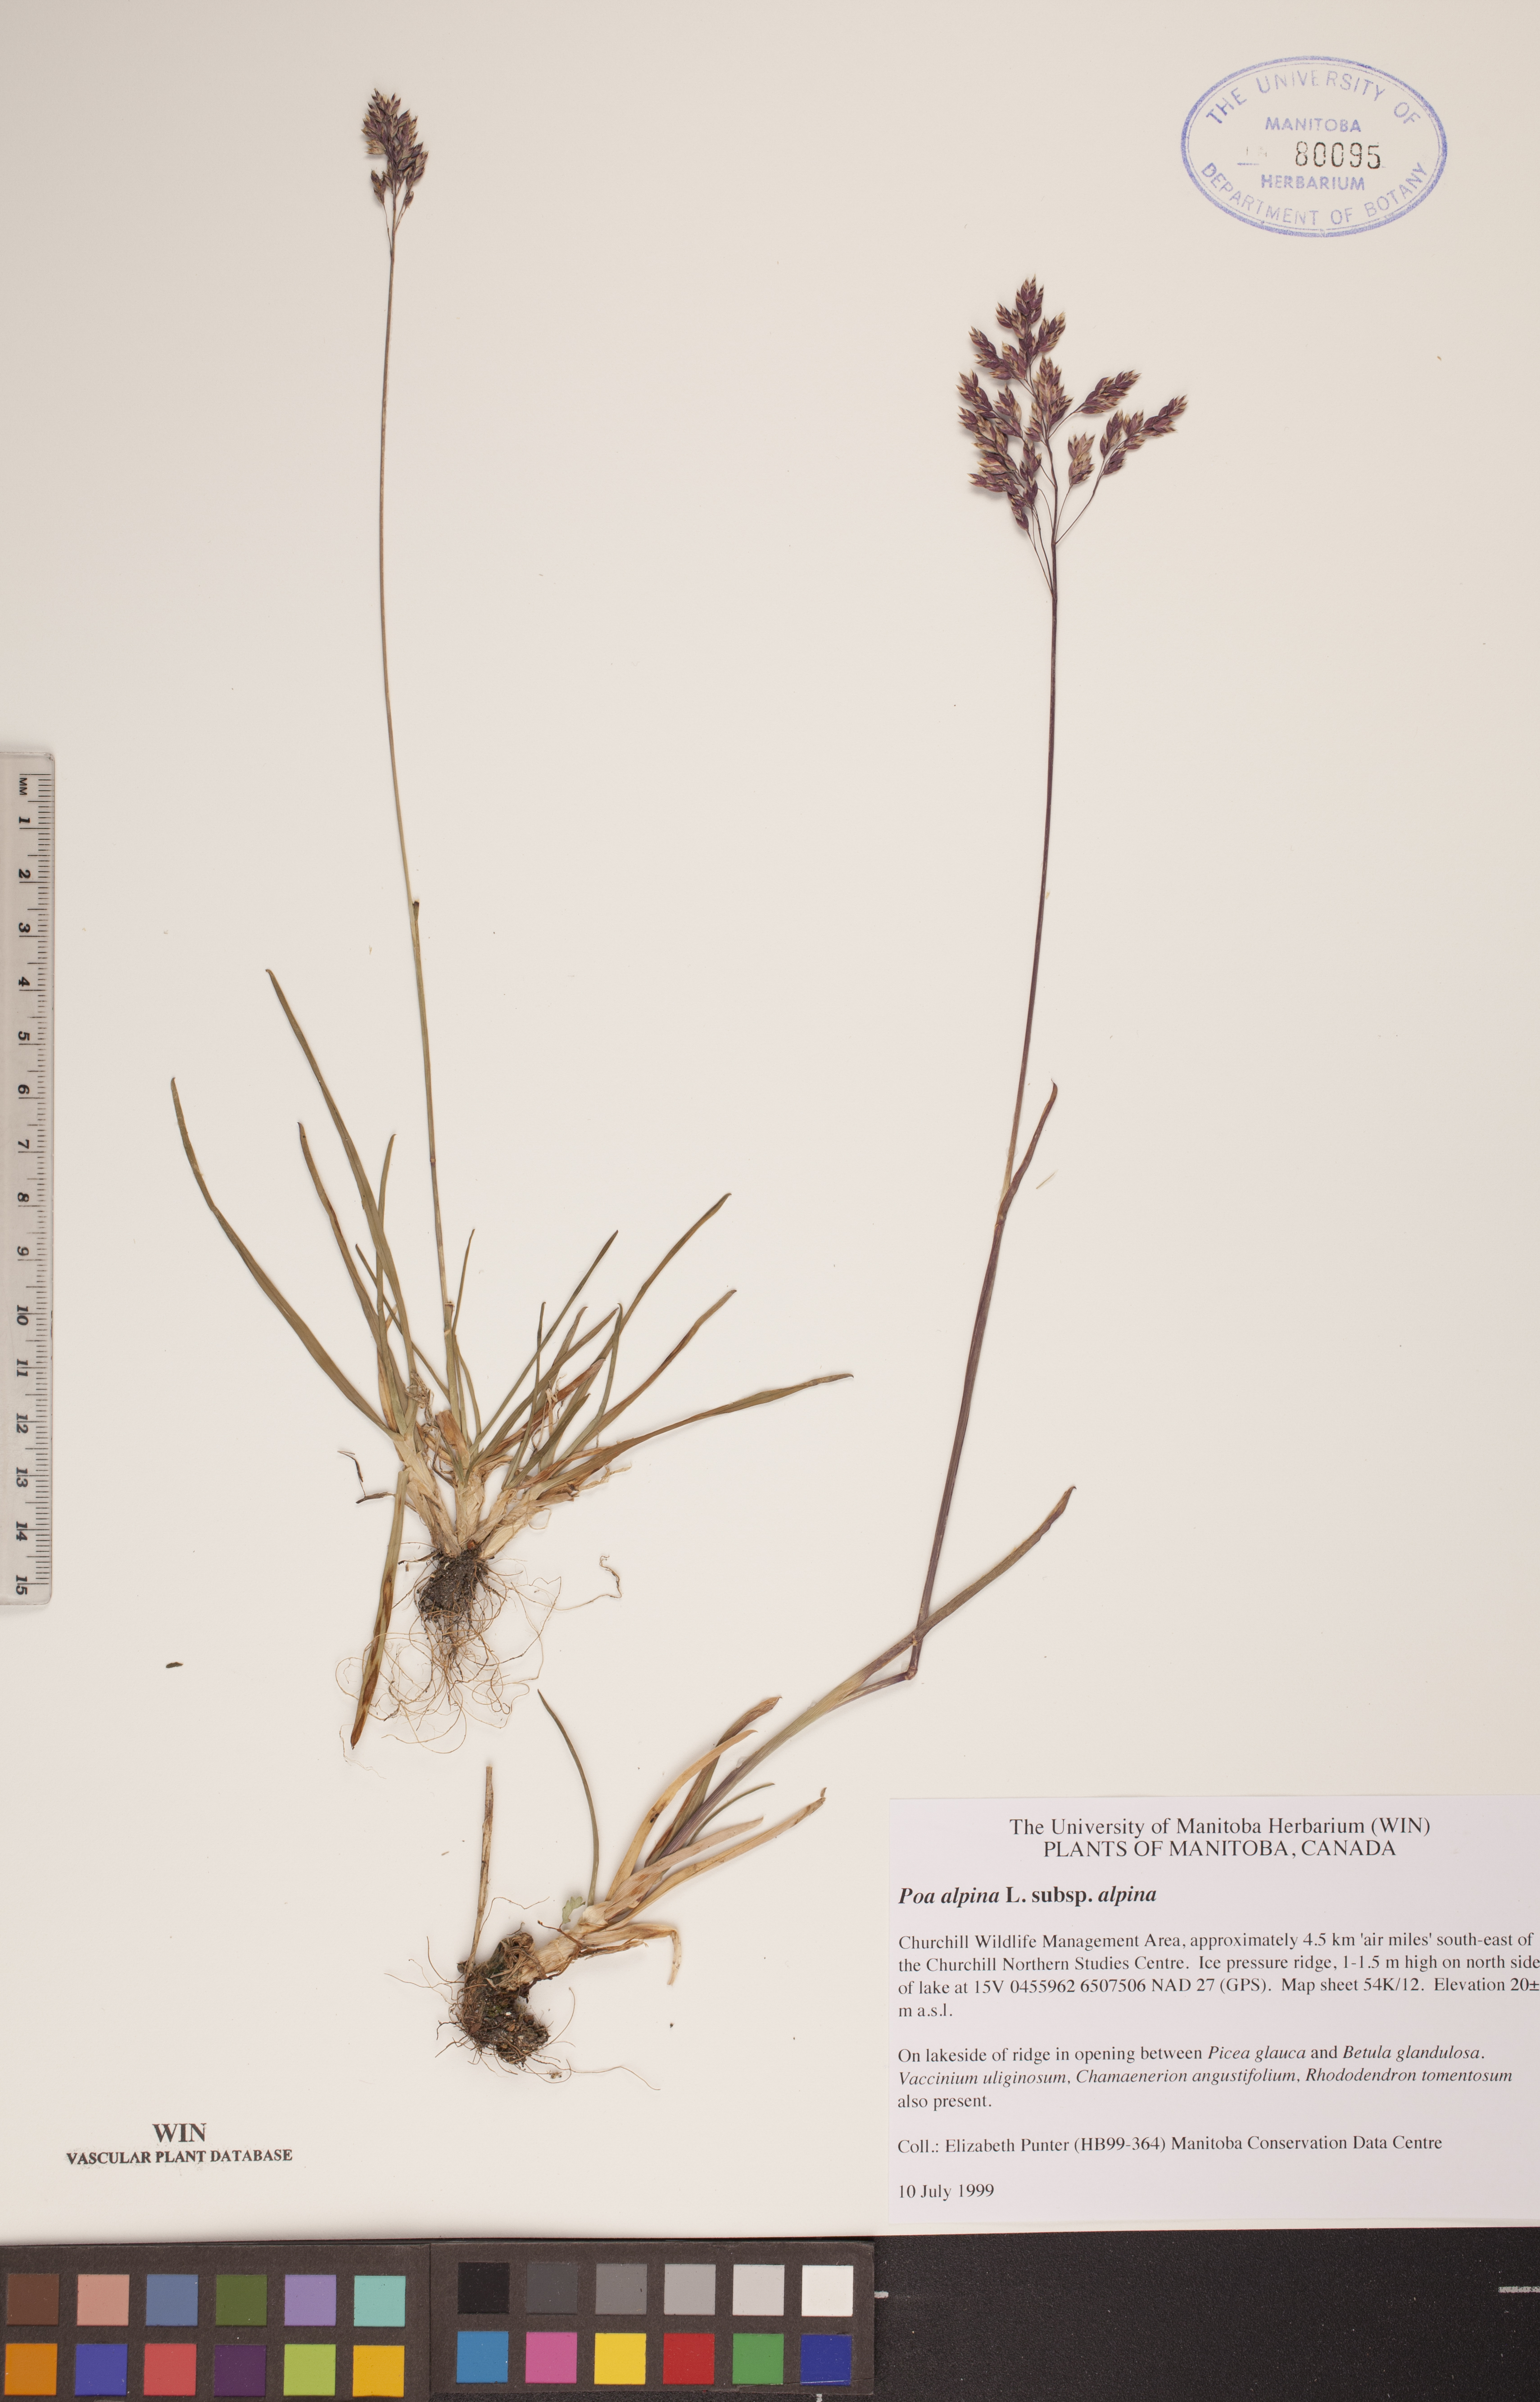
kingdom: Plantae
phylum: Tracheophyta
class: Liliopsida
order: Poales
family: Poaceae
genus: Poa
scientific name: Poa alpina
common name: Alpine bluegrass
